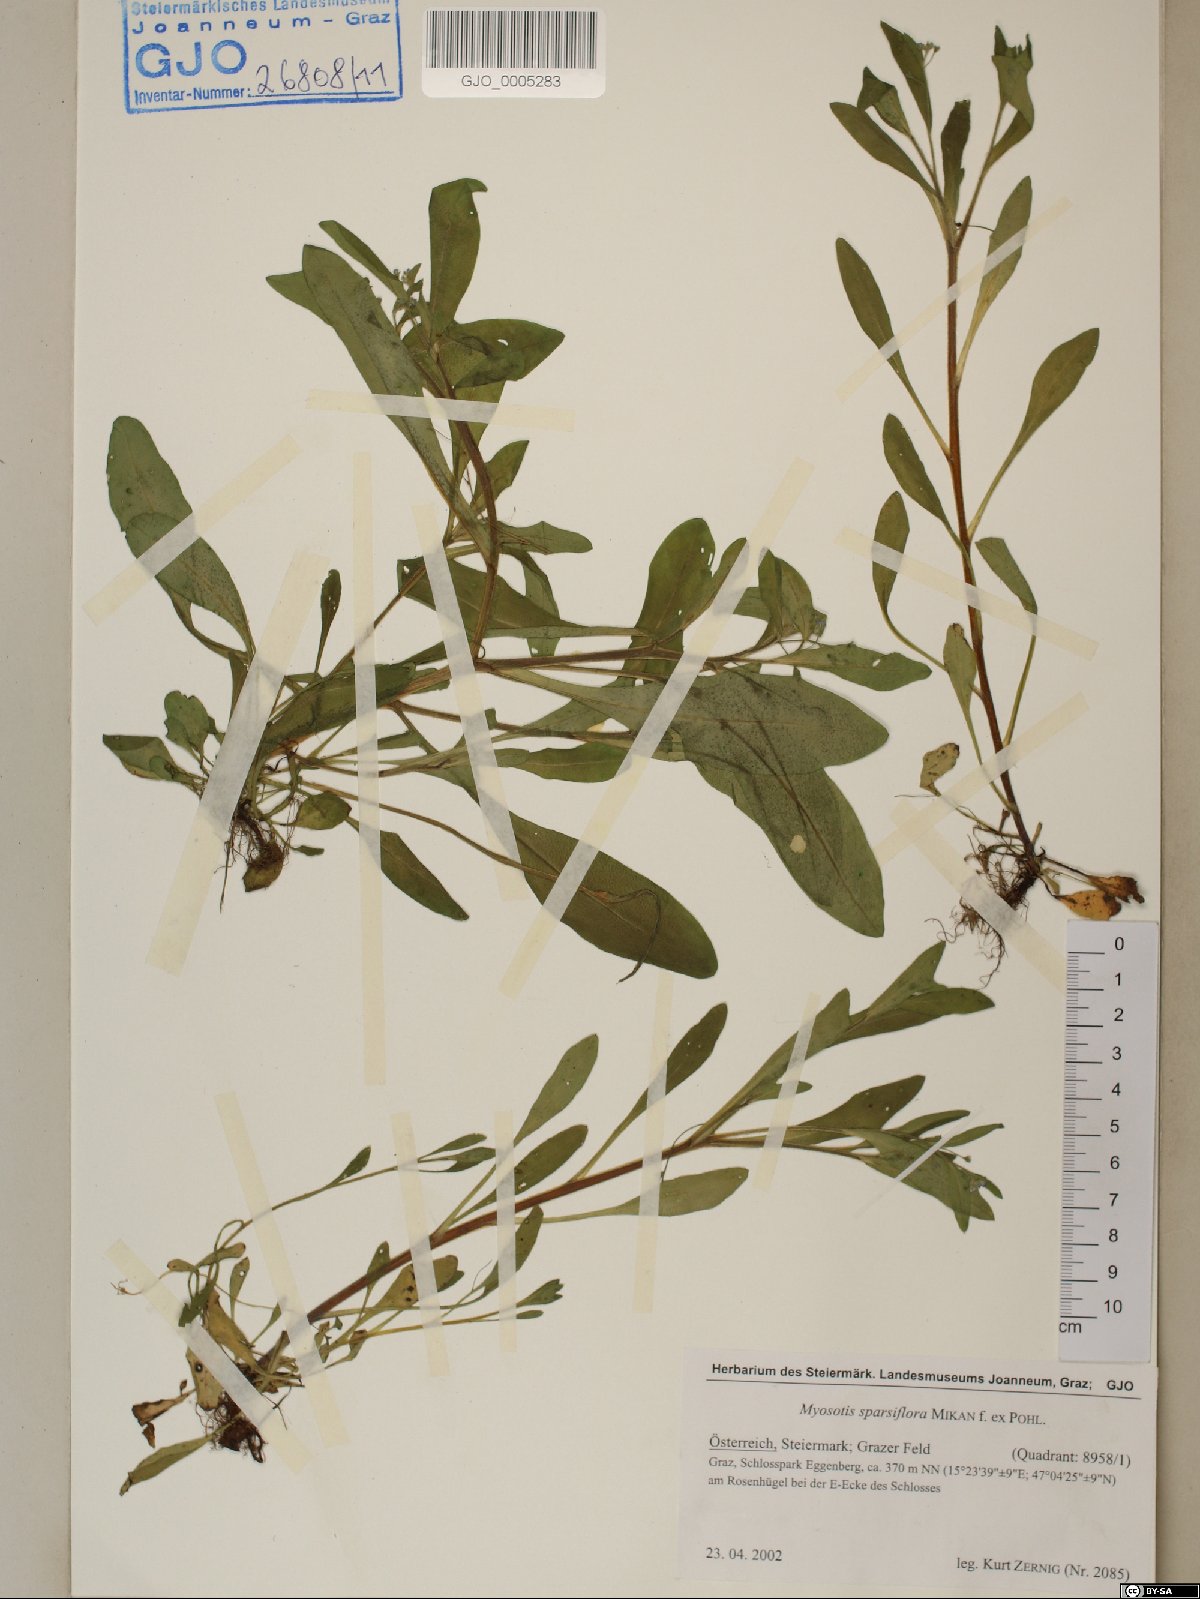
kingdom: Plantae
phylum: Tracheophyta
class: Magnoliopsida
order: Boraginales
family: Boraginaceae
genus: Myosotis
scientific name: Myosotis sparsiflora
